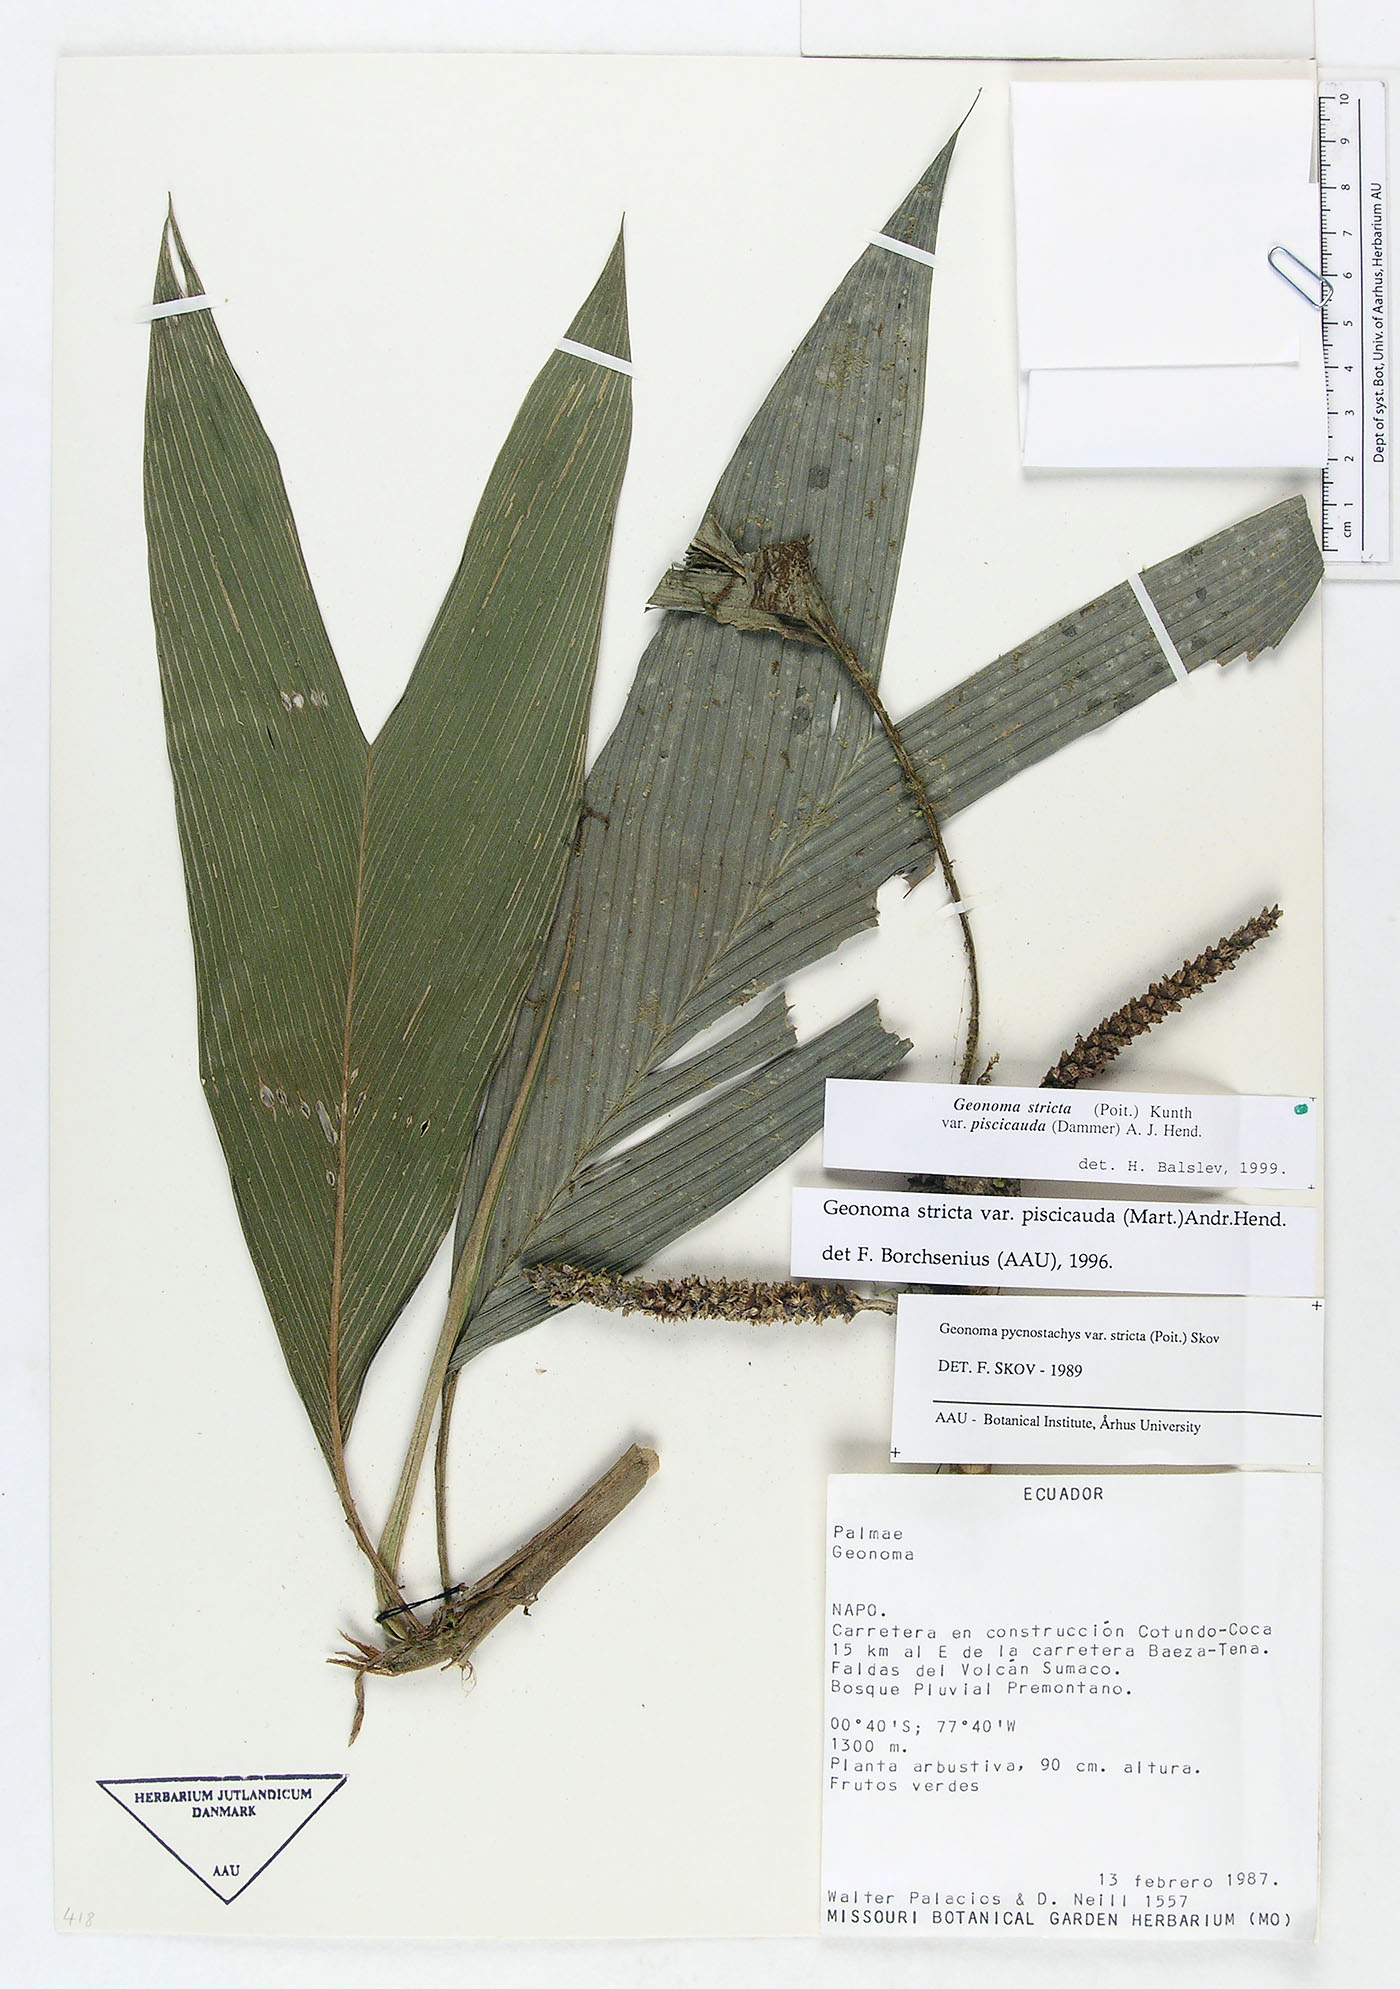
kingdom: Plantae
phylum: Tracheophyta
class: Liliopsida
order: Arecales
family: Arecaceae
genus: Geonoma
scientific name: Geonoma stricta
